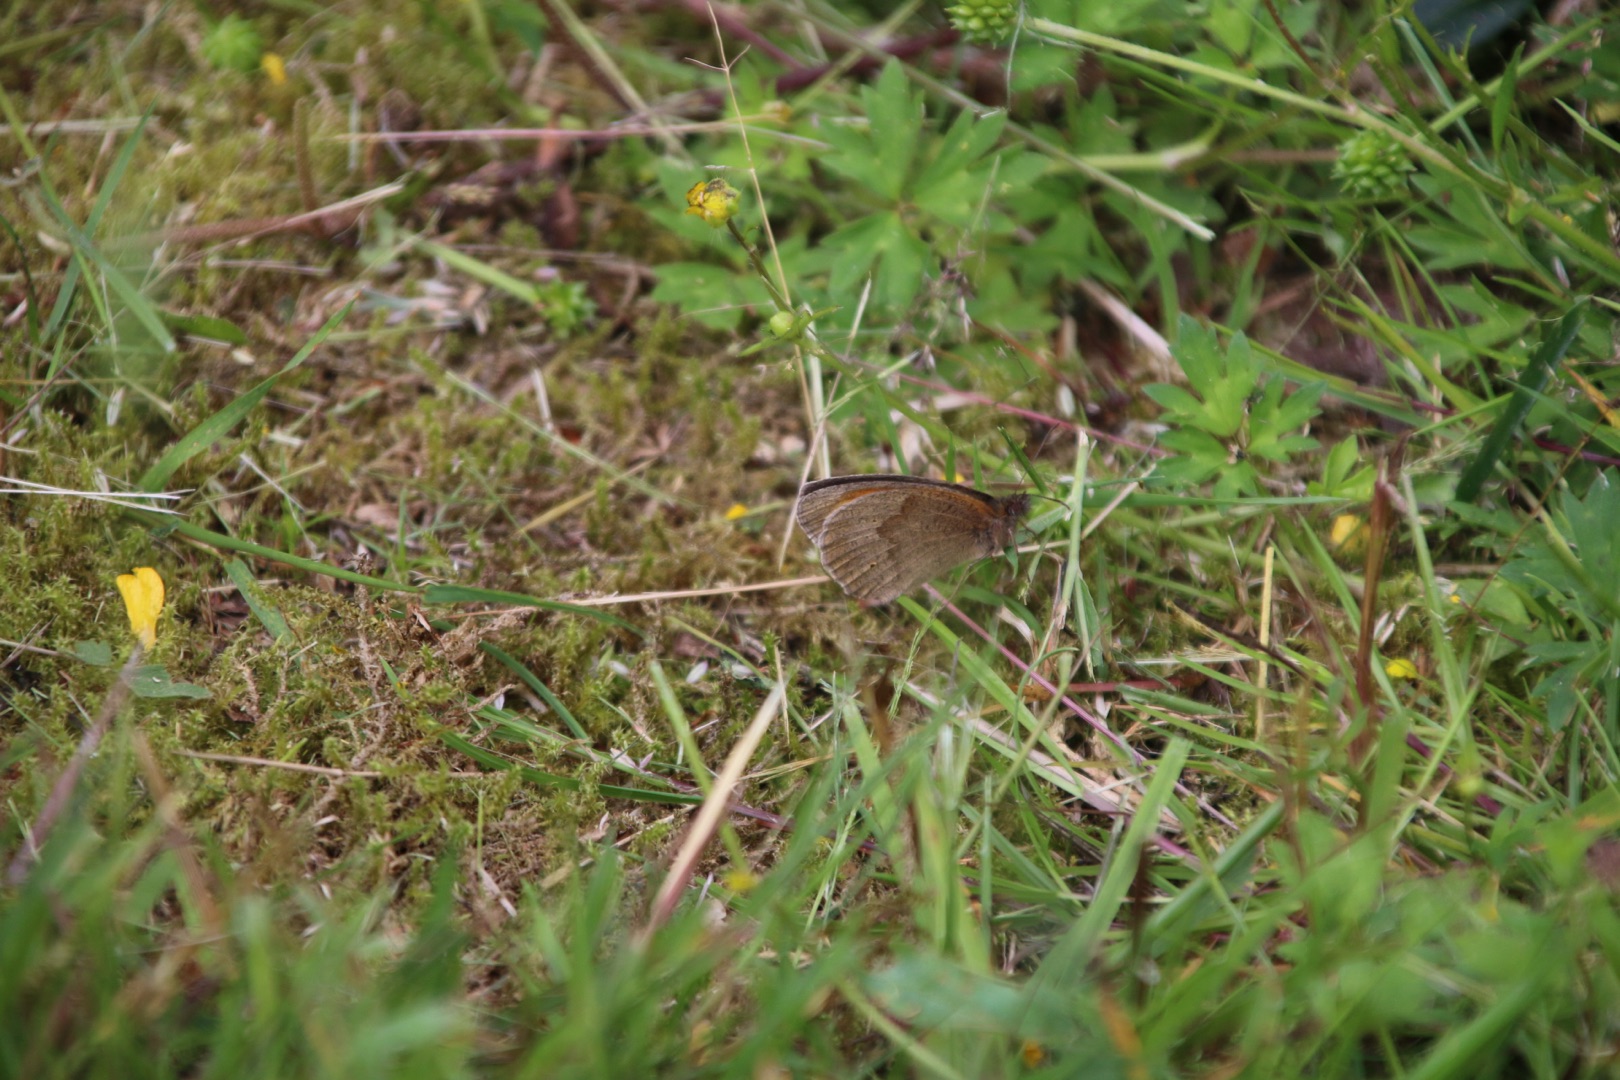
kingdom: Animalia
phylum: Arthropoda
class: Insecta
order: Lepidoptera
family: Nymphalidae
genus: Maniola
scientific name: Maniola jurtina
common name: Græsrandøje
